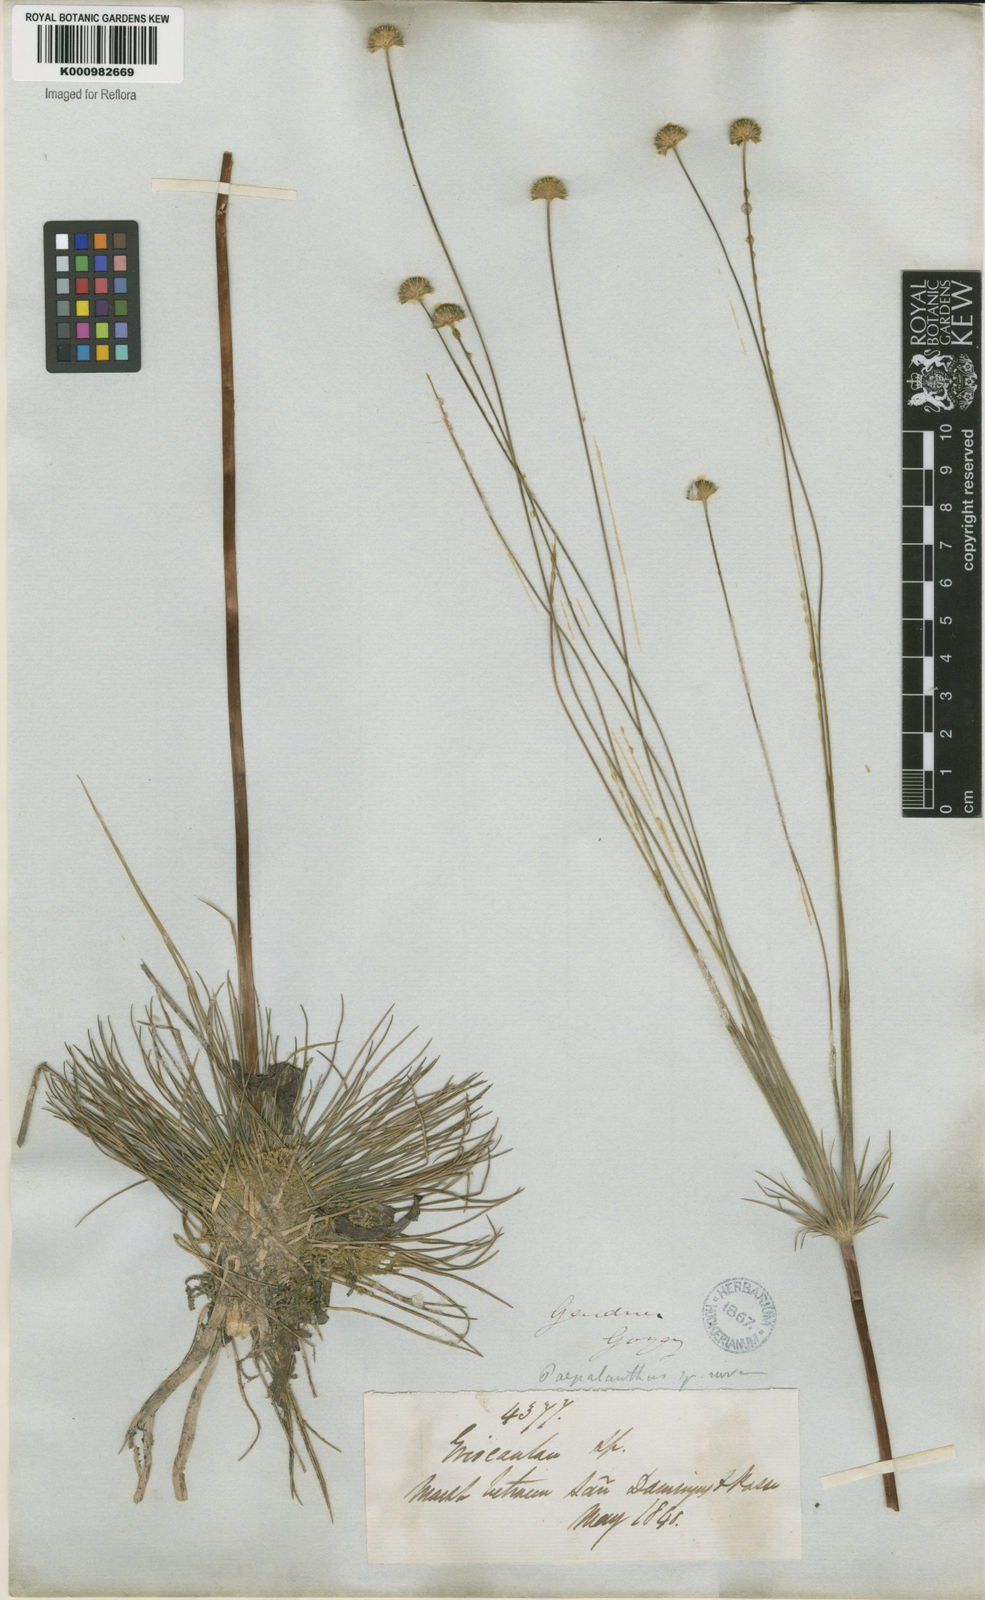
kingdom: Plantae
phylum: Tracheophyta
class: Liliopsida
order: Poales
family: Eriocaulaceae
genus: Syngonanthus
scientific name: Syngonanthus
